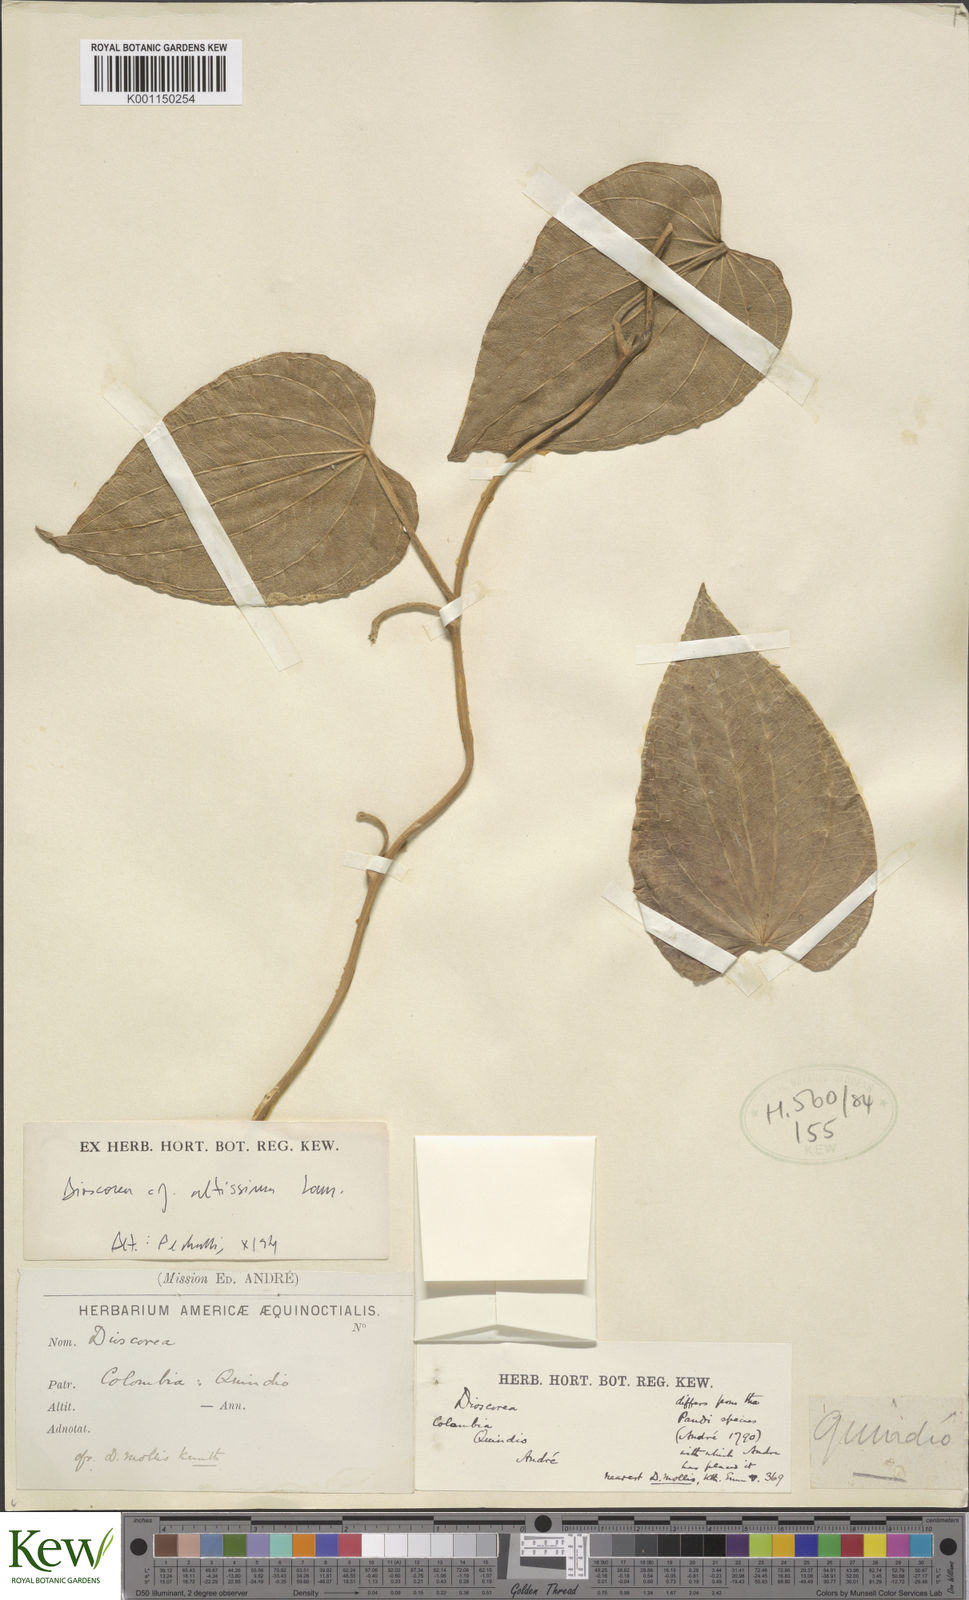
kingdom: Plantae
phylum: Tracheophyta
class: Liliopsida
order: Dioscoreales
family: Dioscoreaceae
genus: Dioscorea
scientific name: Dioscorea biplicata
